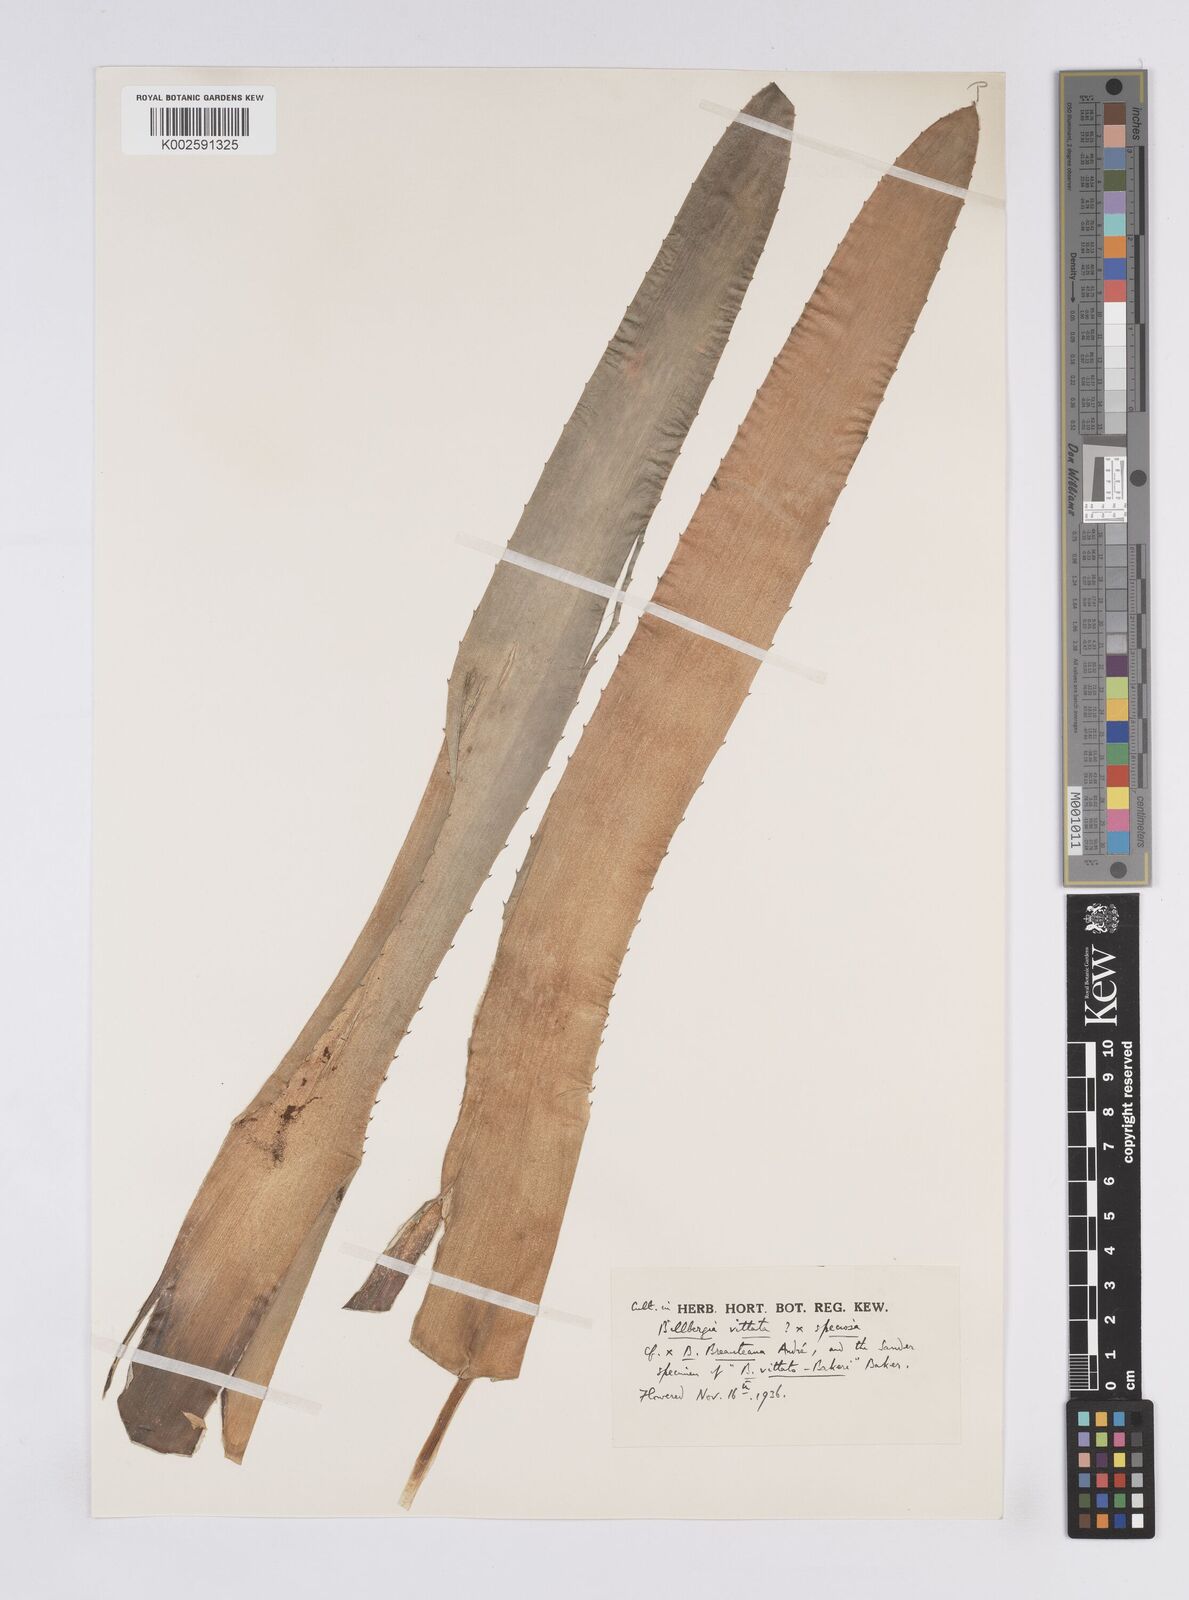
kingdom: Plantae
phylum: Tracheophyta
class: Liliopsida
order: Poales
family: Bromeliaceae
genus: Billbergia
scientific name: Billbergia blireiana
